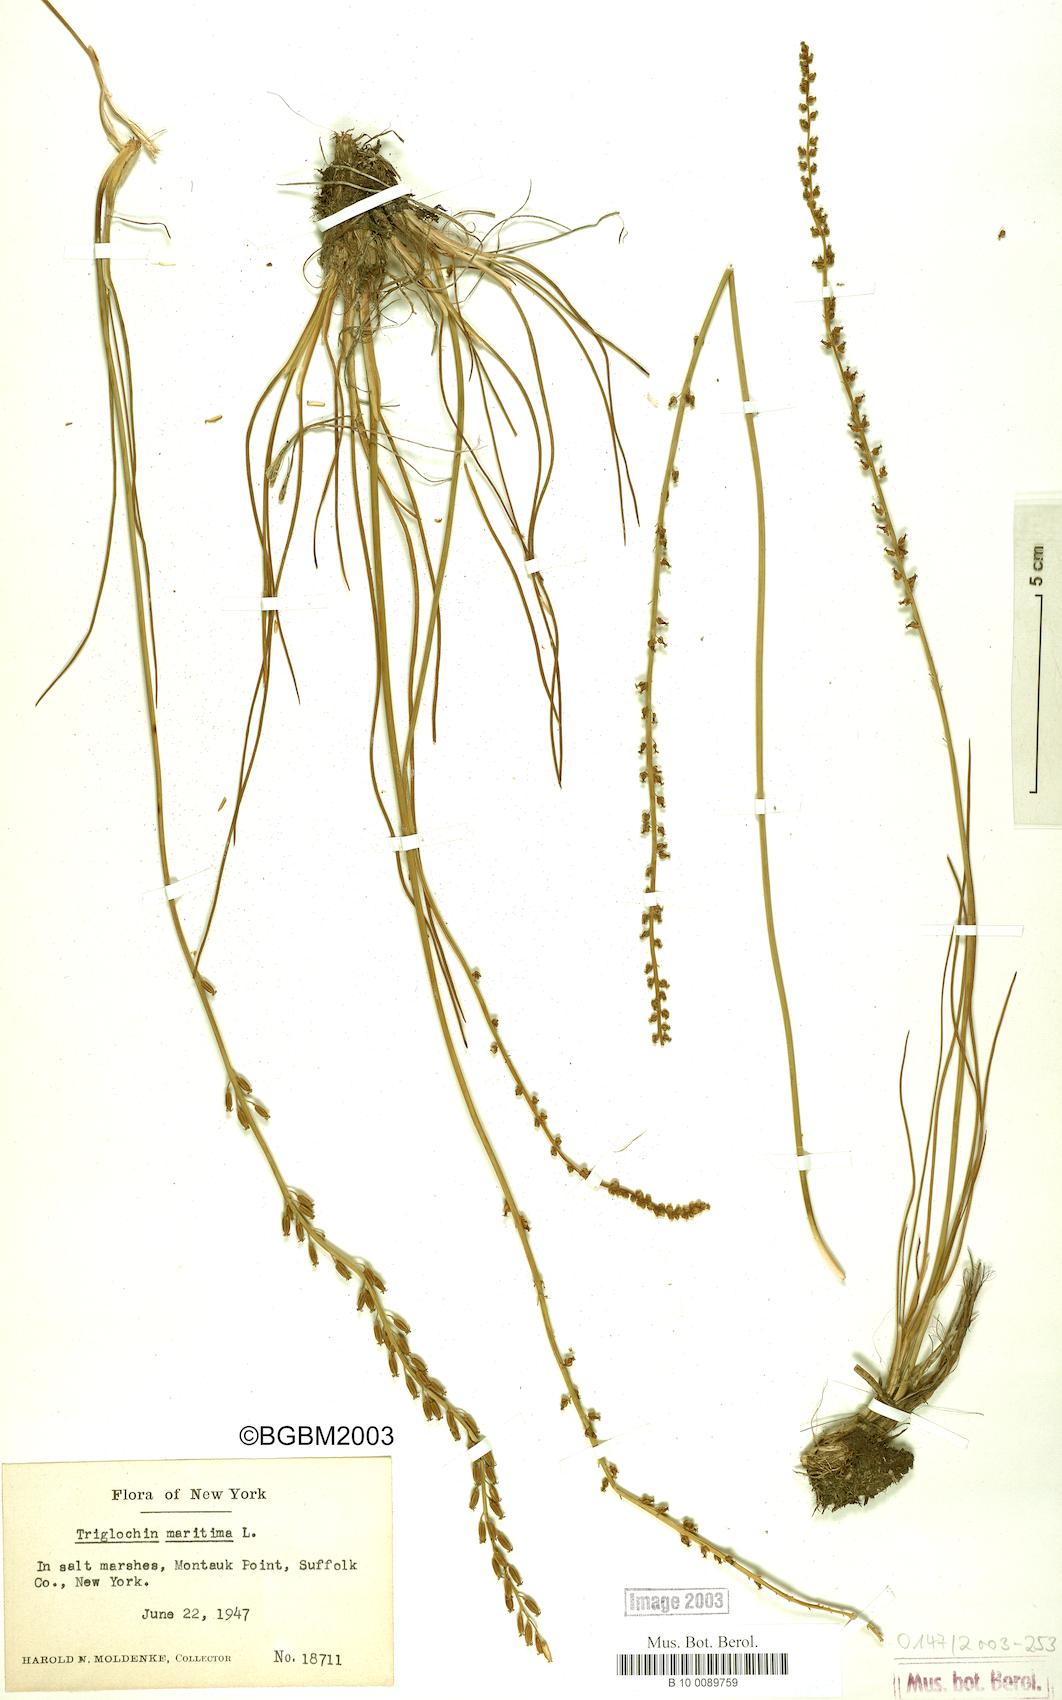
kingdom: Plantae
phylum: Tracheophyta
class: Liliopsida
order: Alismatales
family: Juncaginaceae
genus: Triglochin
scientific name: Triglochin maritima
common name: Sea arrowgrass
